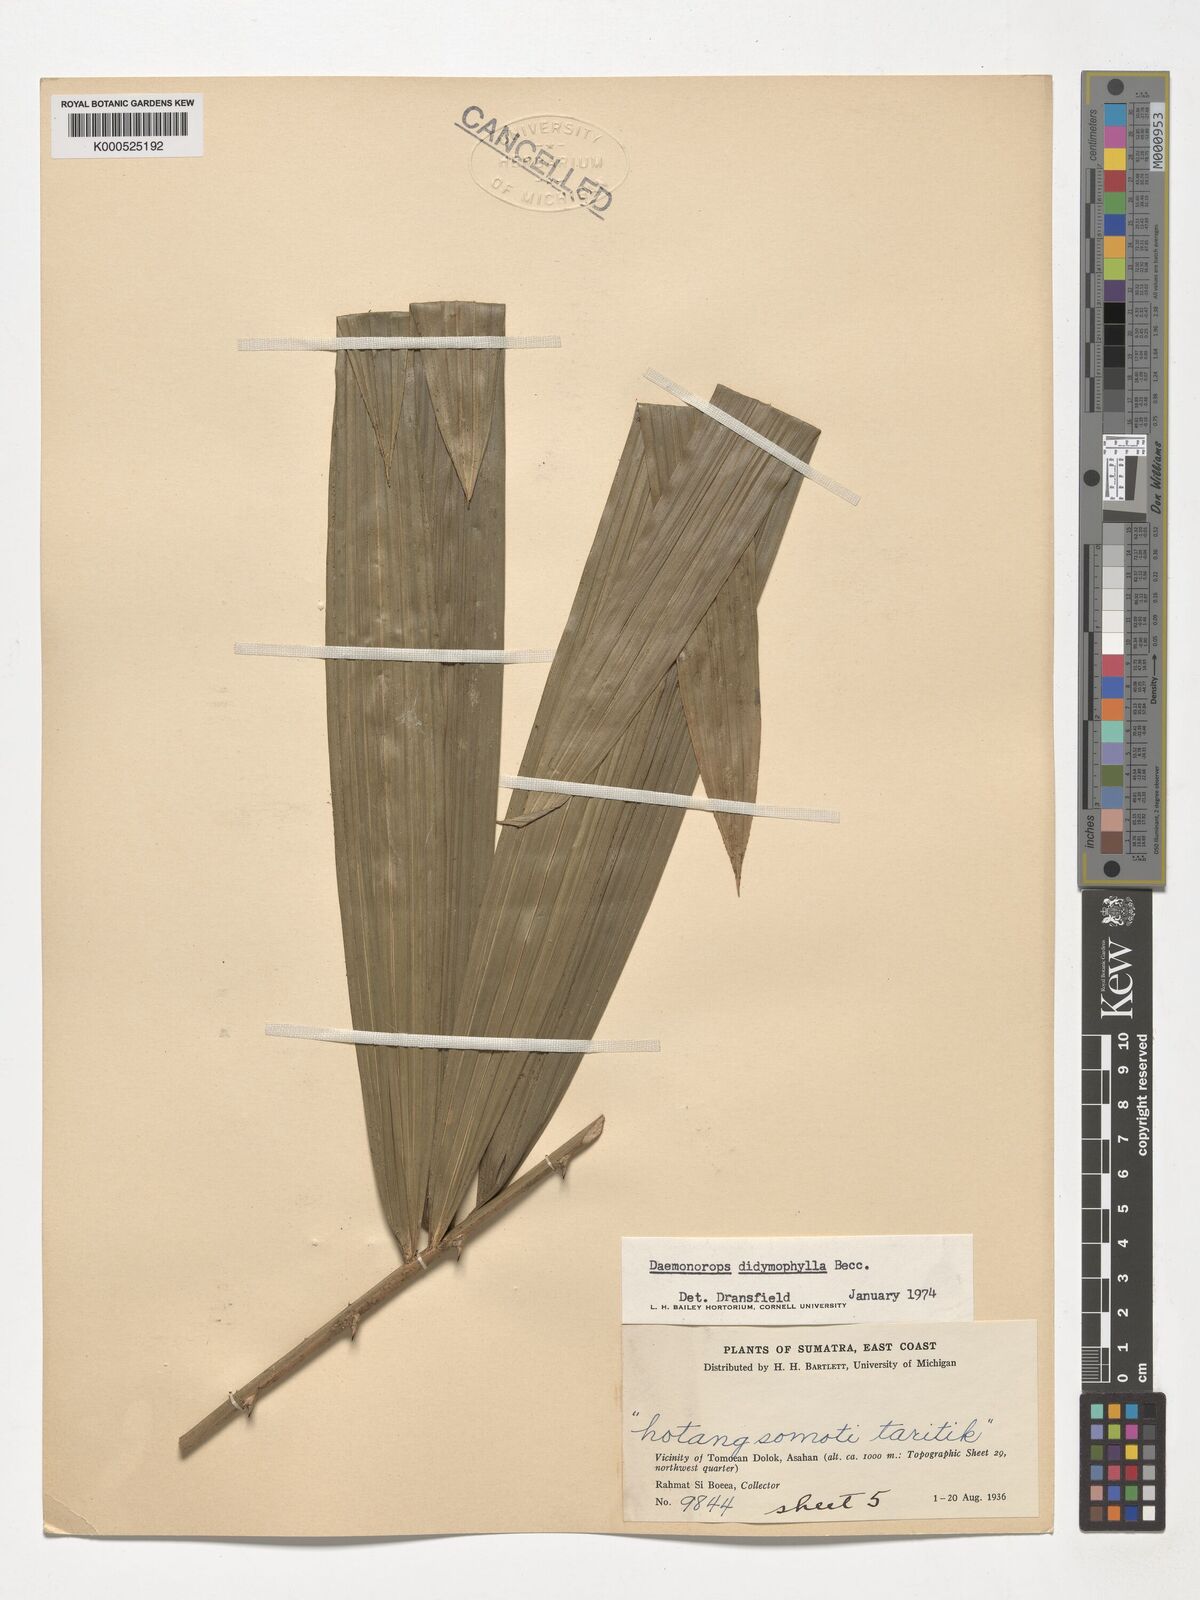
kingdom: Plantae
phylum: Tracheophyta
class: Liliopsida
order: Arecales
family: Arecaceae
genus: Calamus
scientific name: Calamus gracilipes
